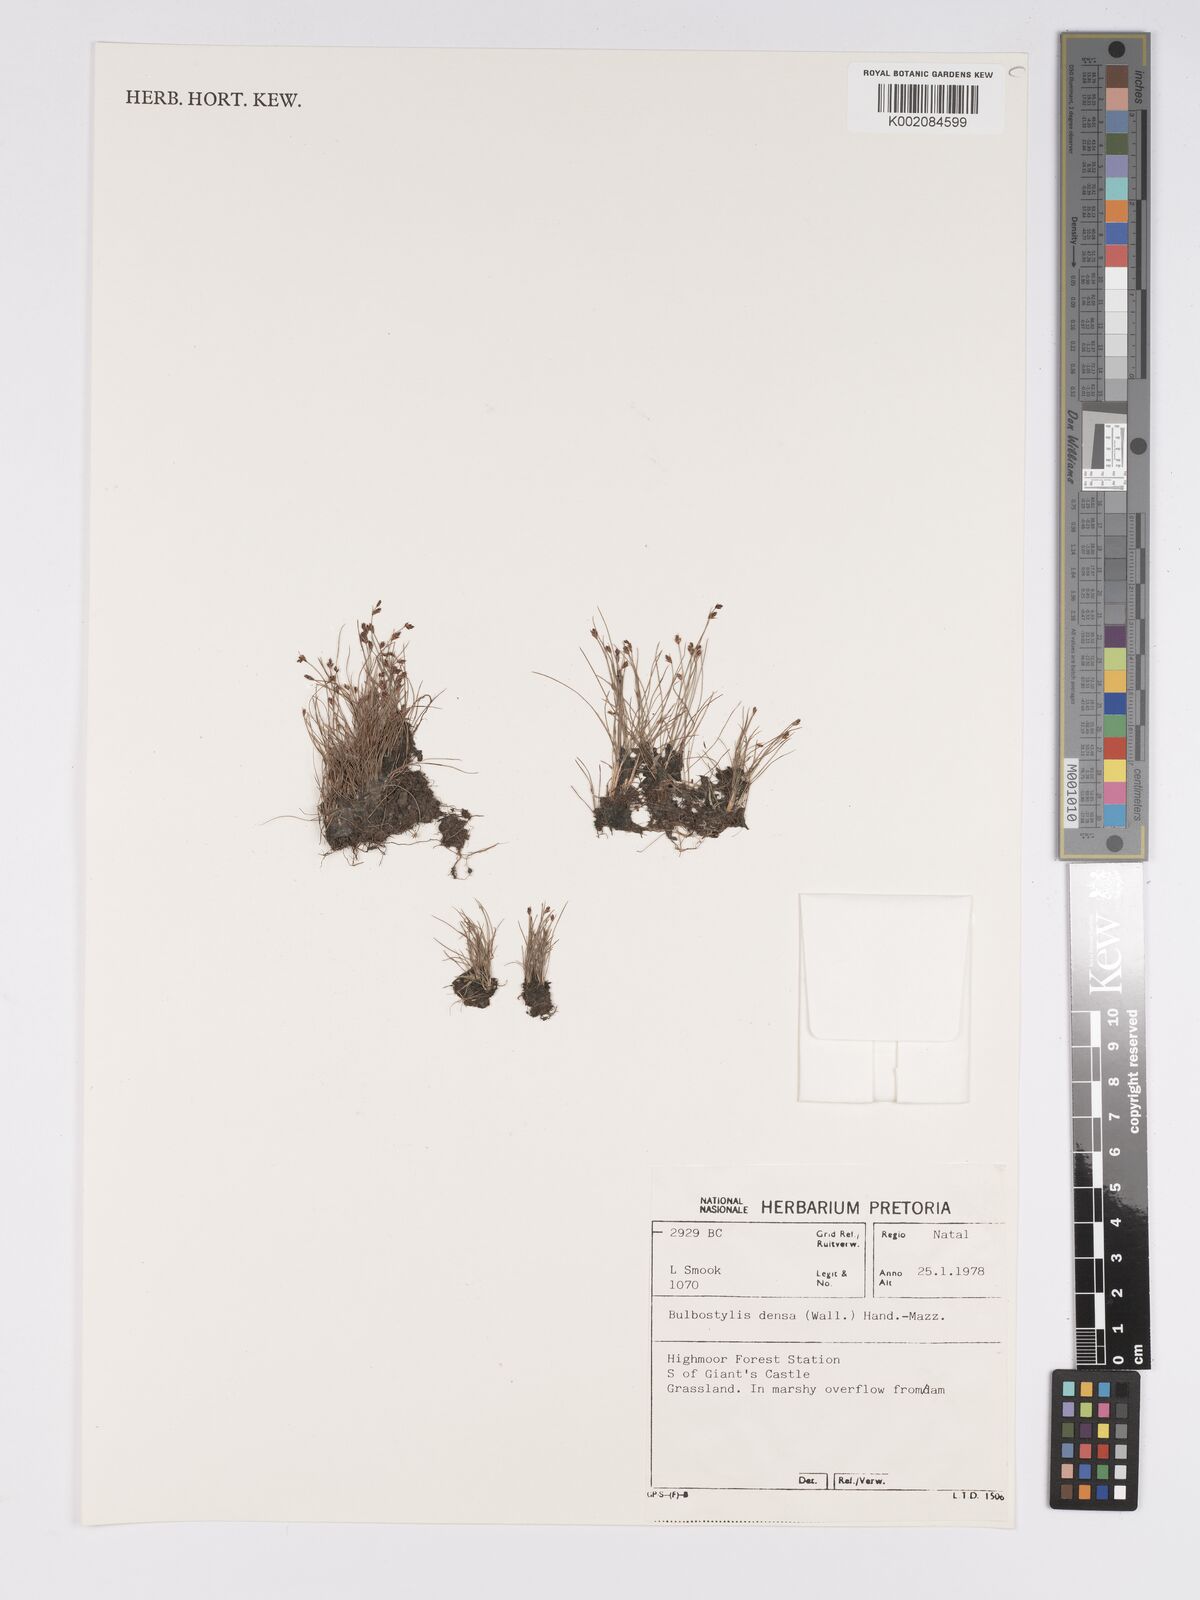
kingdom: Plantae
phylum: Tracheophyta
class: Liliopsida
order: Poales
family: Cyperaceae
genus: Bulbostylis
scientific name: Bulbostylis densa
